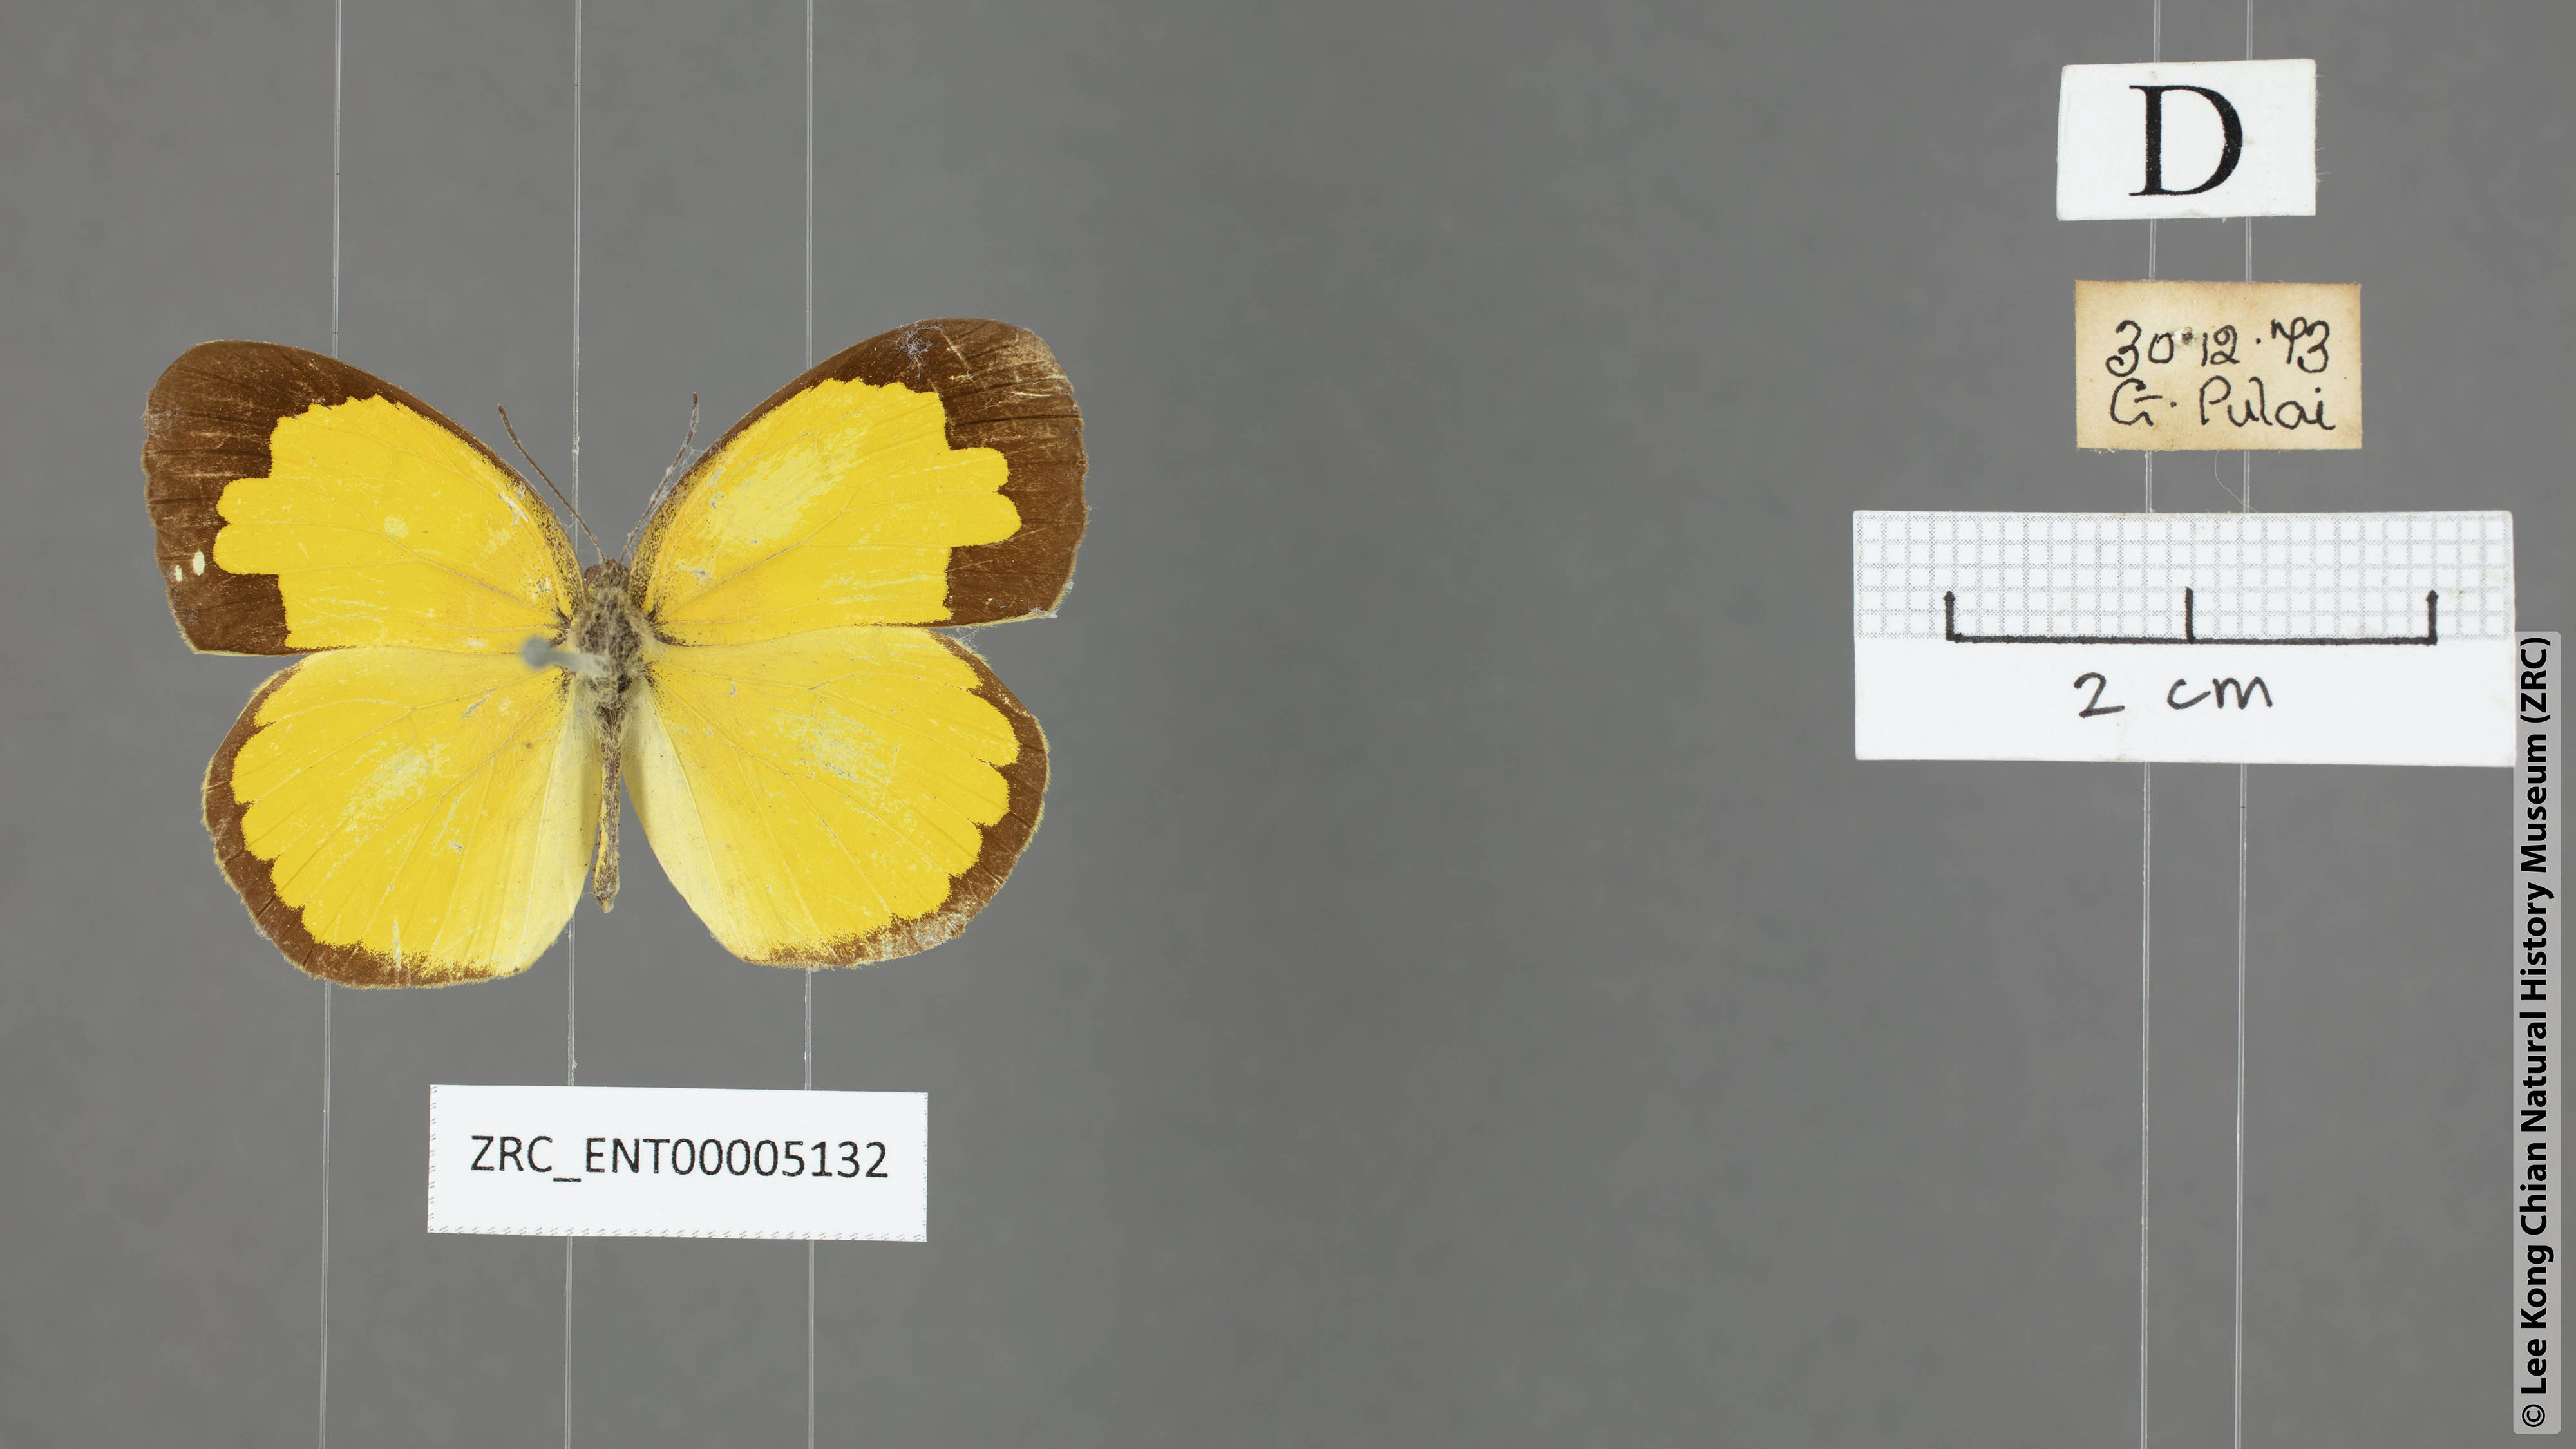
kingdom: Animalia
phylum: Arthropoda
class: Insecta
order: Lepidoptera
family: Pieridae
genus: Eurema
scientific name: Eurema lacteola
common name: Scarce grass yellow
